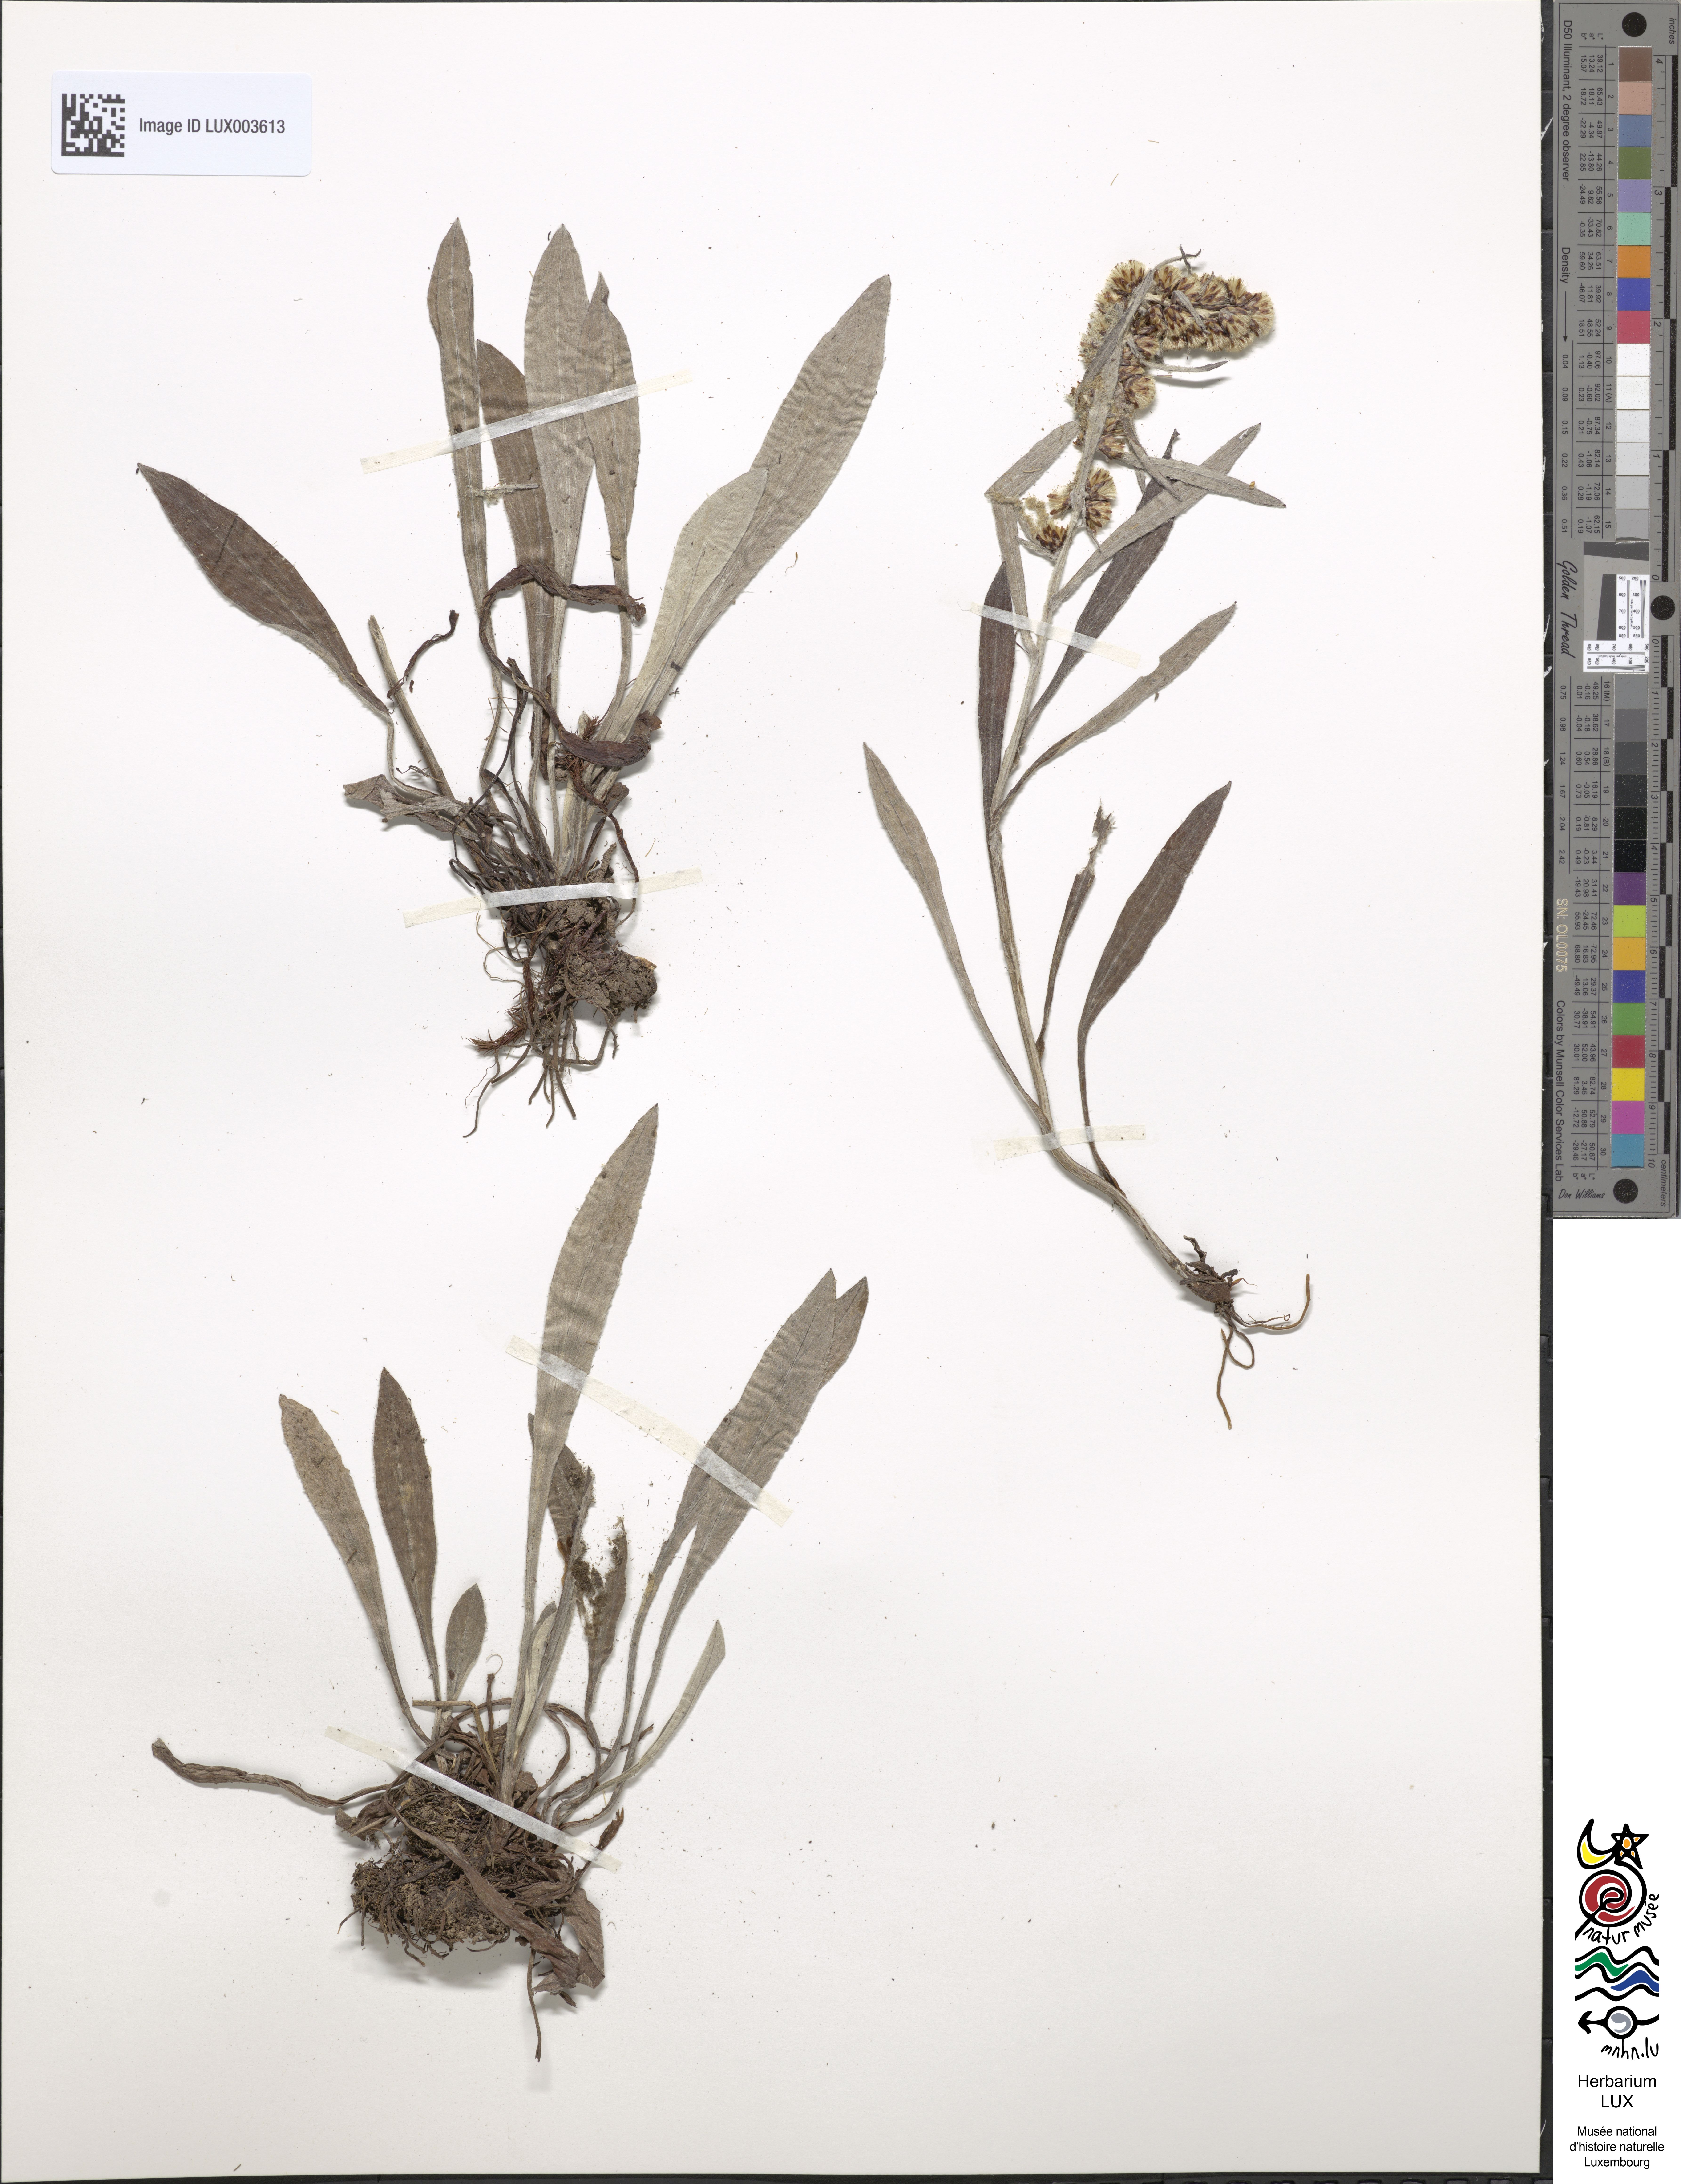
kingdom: Plantae
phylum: Tracheophyta
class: Magnoliopsida
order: Asterales
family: Asteraceae
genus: Omalotheca
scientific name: Omalotheca norvegica
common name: Norwegian arctic-cudweed
